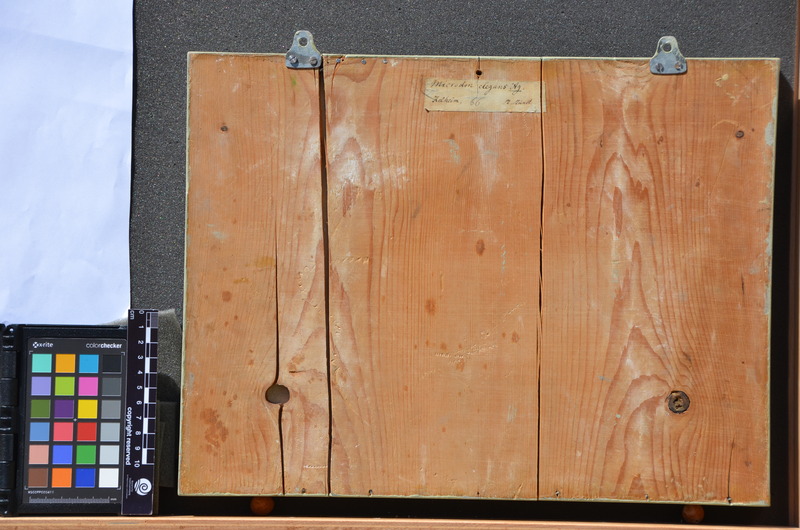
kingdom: Animalia
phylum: Chordata
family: Pycnodontidae
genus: Proscinetes
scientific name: Proscinetes elegans
